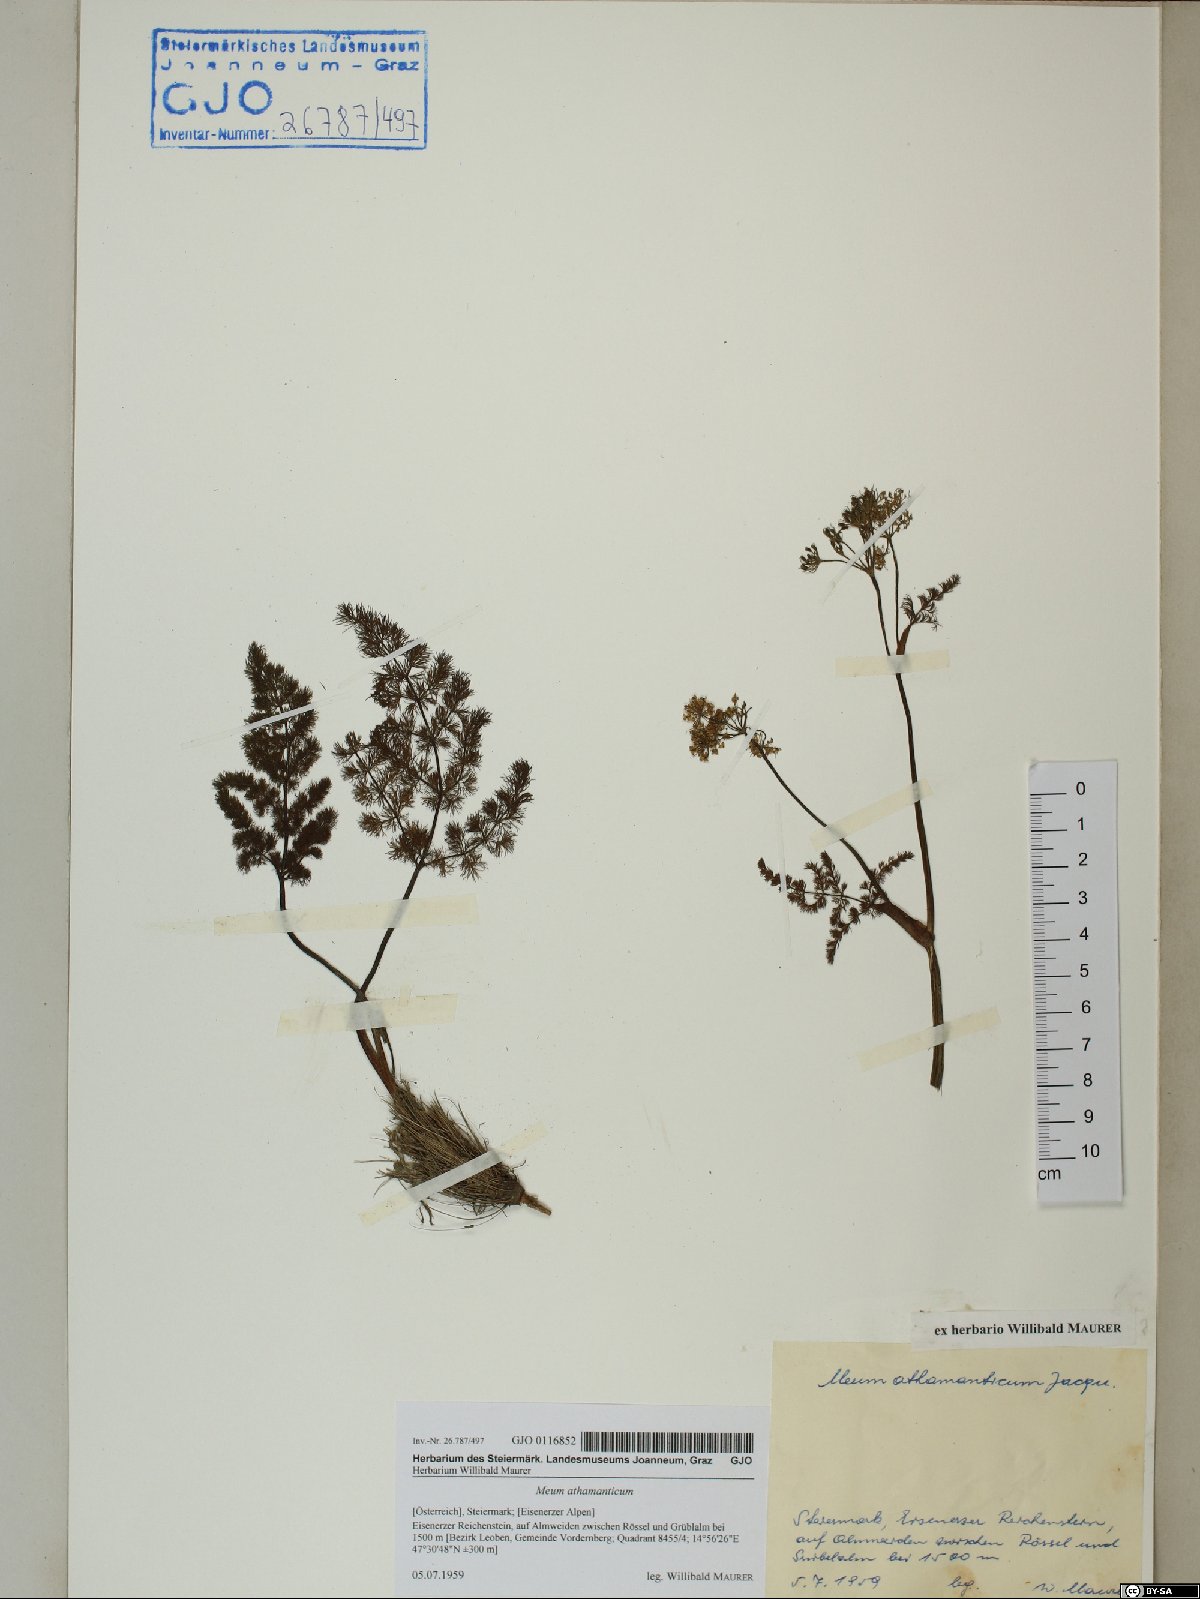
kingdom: Plantae
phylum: Tracheophyta
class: Magnoliopsida
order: Apiales
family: Apiaceae
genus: Meum
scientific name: Meum athamanticum
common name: Spignel
